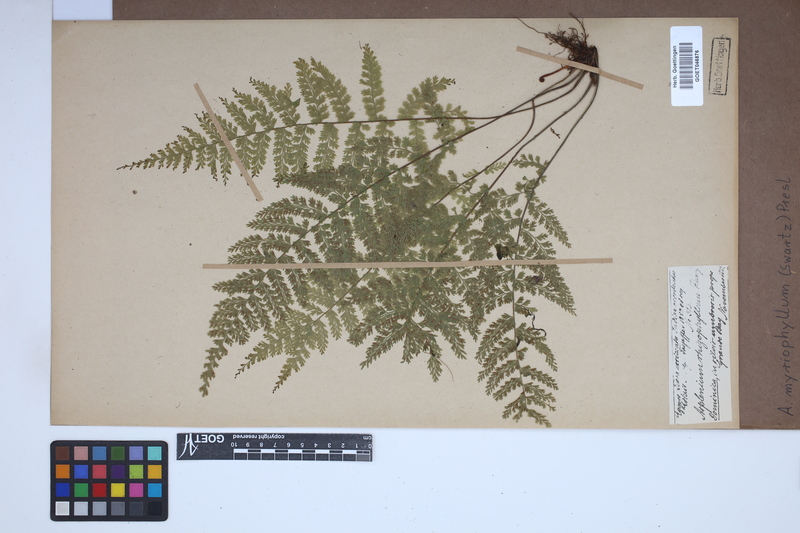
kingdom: Plantae
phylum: Tracheophyta
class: Polypodiopsida
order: Polypodiales
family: Aspleniaceae
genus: Asplenium
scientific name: Asplenium myriophyllum
